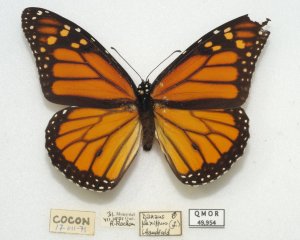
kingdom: Animalia
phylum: Arthropoda
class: Insecta
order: Lepidoptera
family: Nymphalidae
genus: Danaus
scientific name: Danaus plexippus
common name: Monarch
